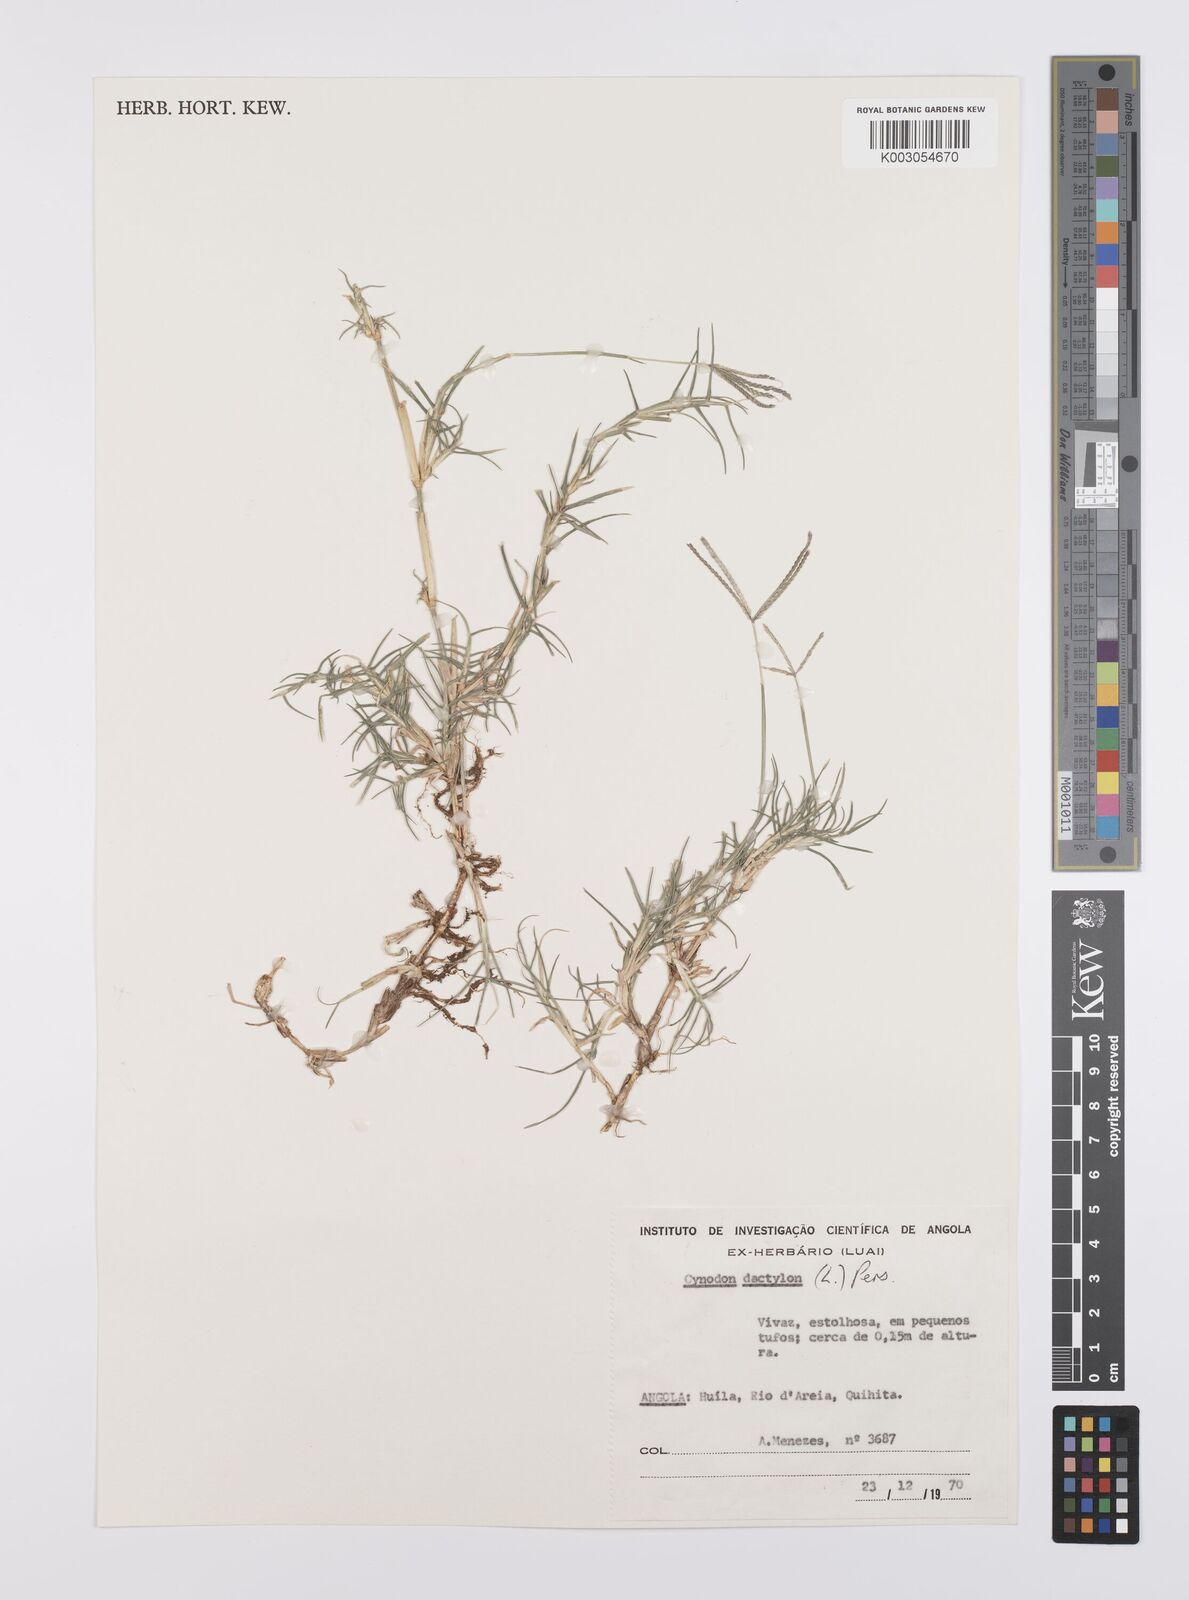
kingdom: Plantae
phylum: Tracheophyta
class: Liliopsida
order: Poales
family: Poaceae
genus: Cynodon
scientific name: Cynodon dactylon
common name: Bermuda grass
